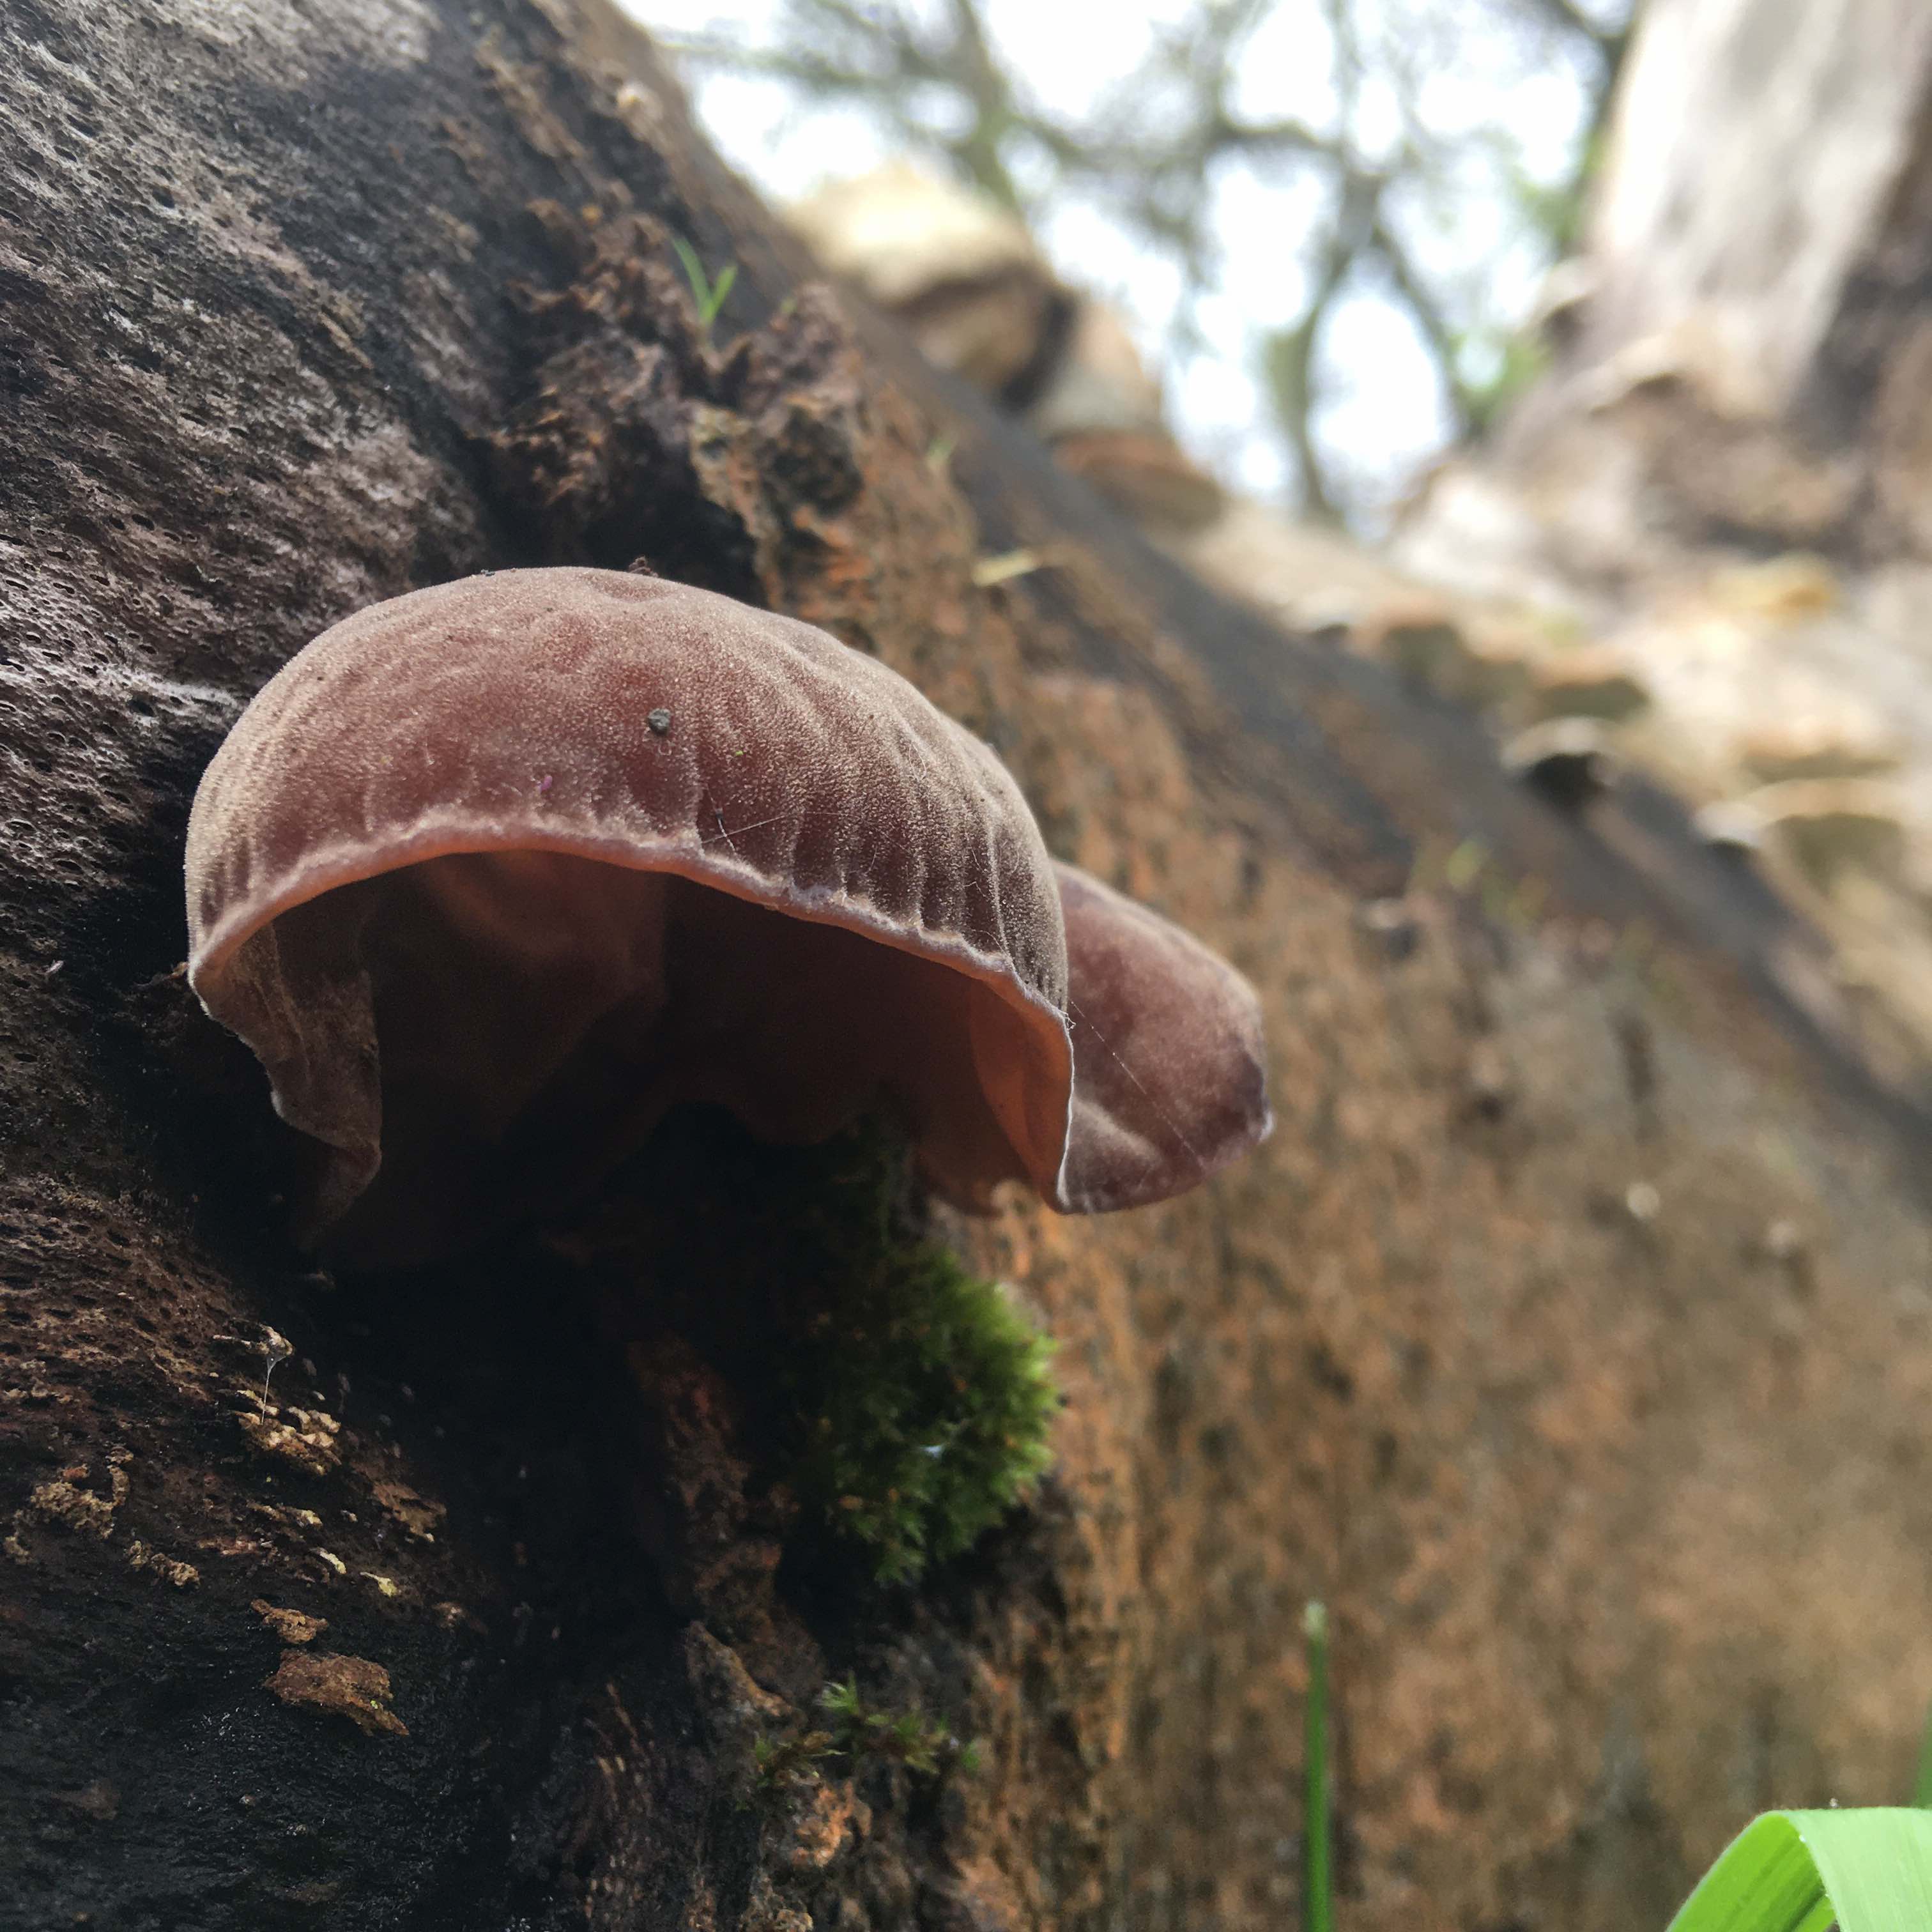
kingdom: Fungi
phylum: Basidiomycota
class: Agaricomycetes
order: Auriculariales
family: Auriculariaceae
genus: Auricularia
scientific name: Auricularia auricula-judae
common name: almindelig judasøre
